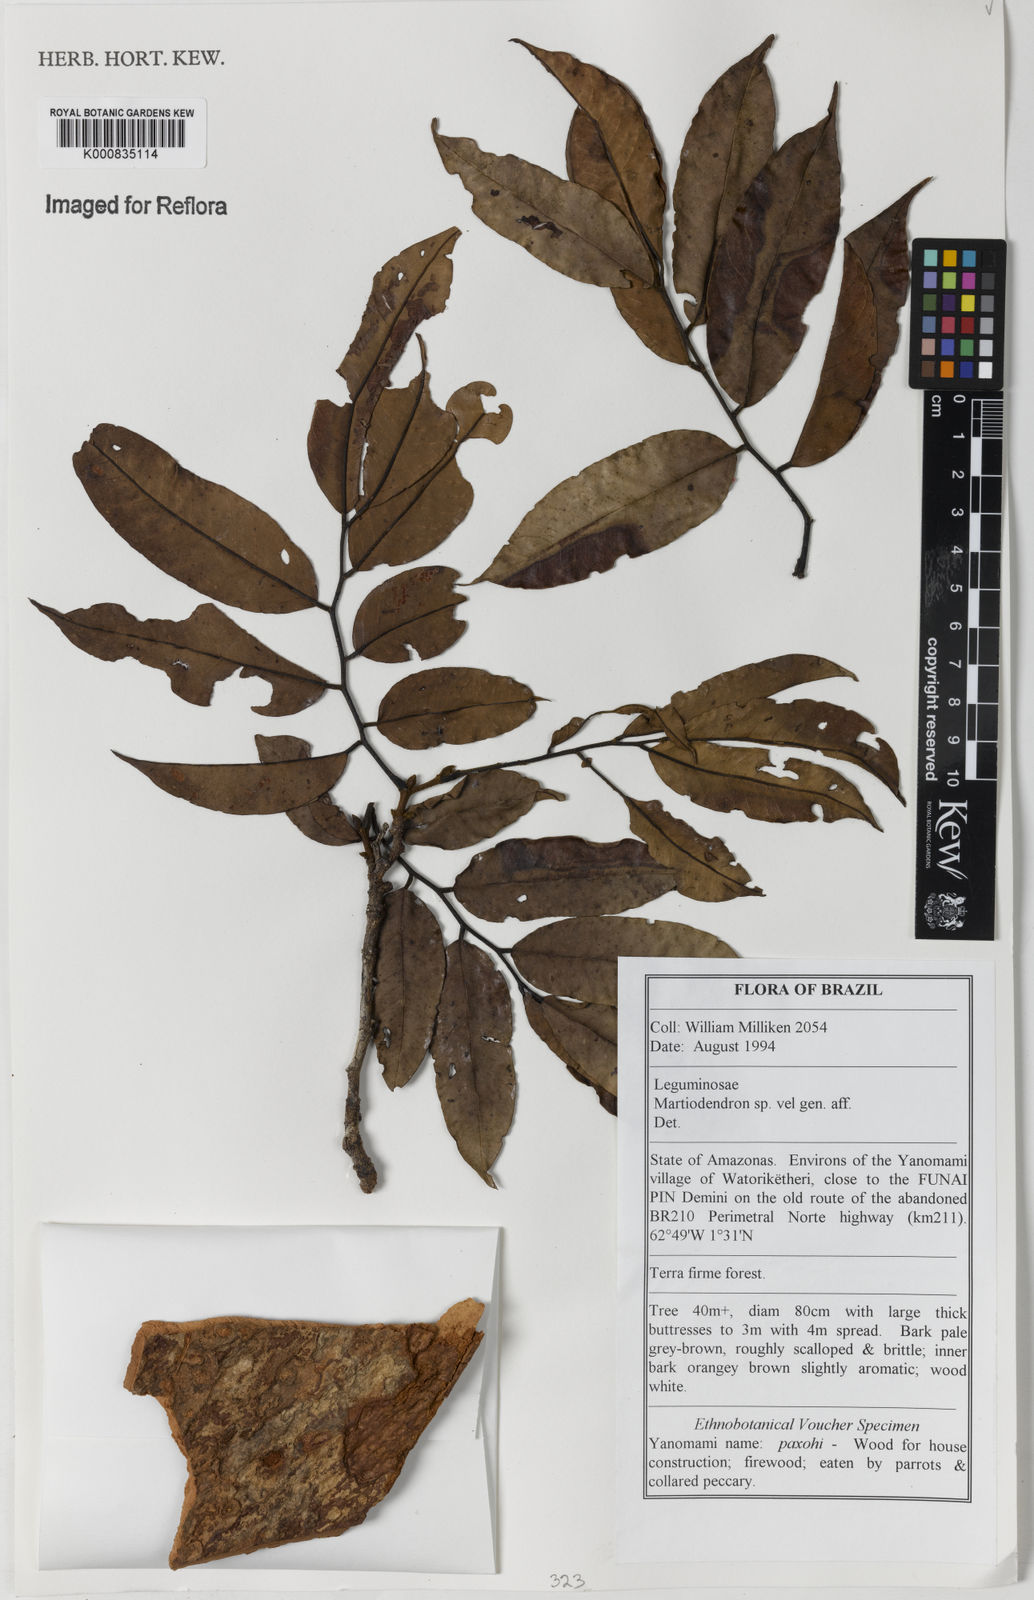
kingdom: Plantae
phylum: Tracheophyta
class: Magnoliopsida
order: Fabales
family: Fabaceae
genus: Martiodendron
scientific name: Martiodendron
